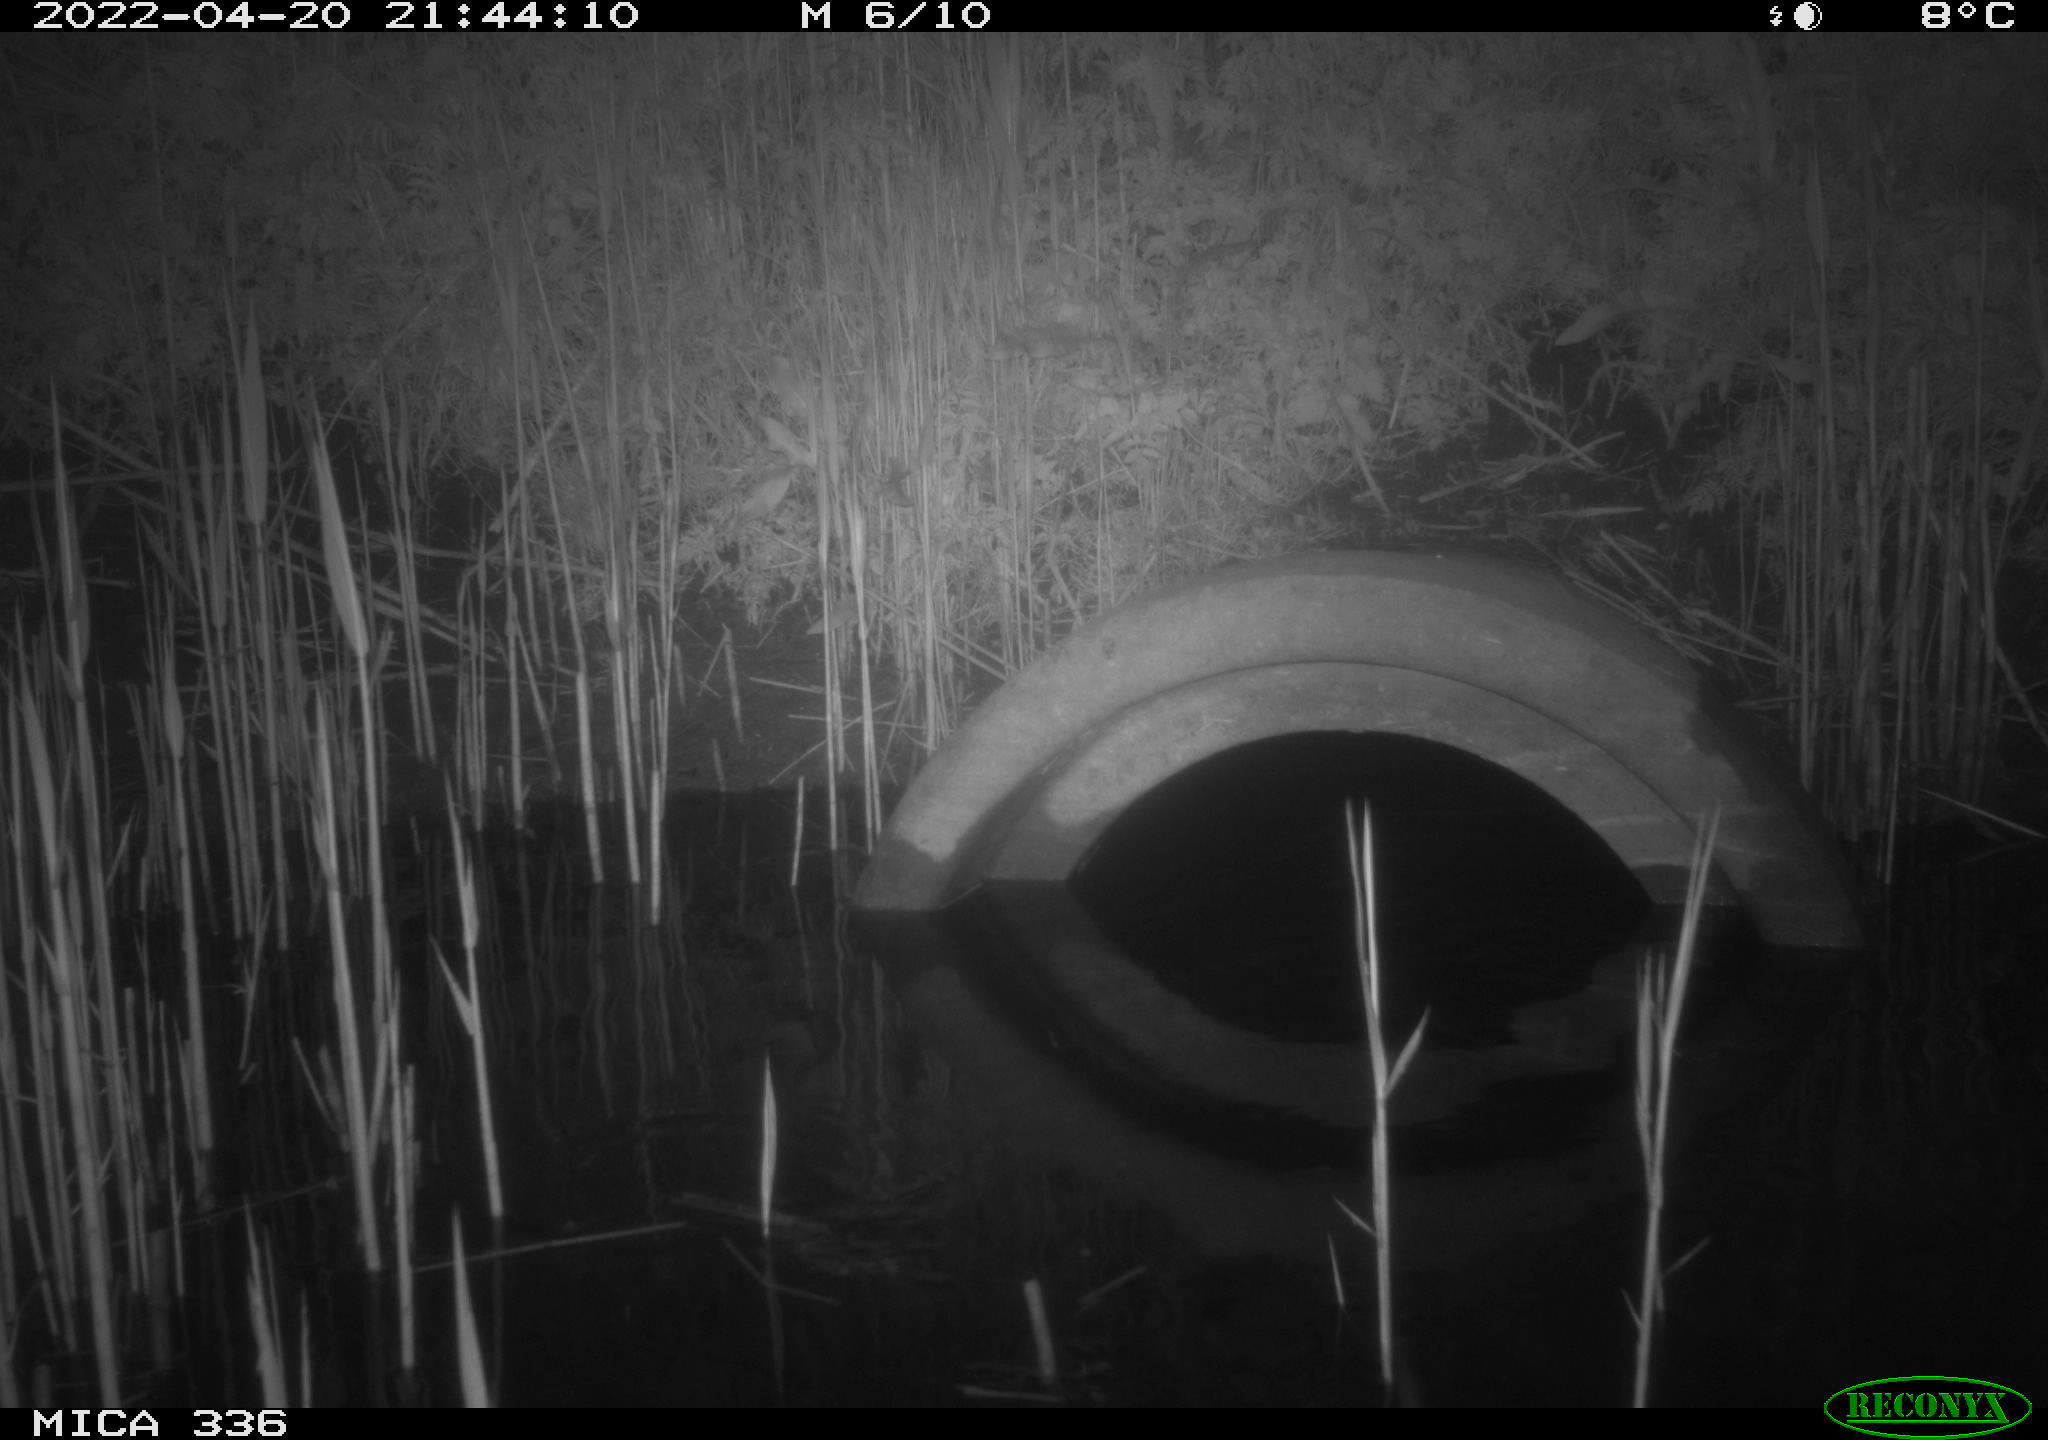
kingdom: Animalia
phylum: Chordata
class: Aves
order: Pelecaniformes
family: Ardeidae
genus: Ardea
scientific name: Ardea cinerea
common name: Grey heron
